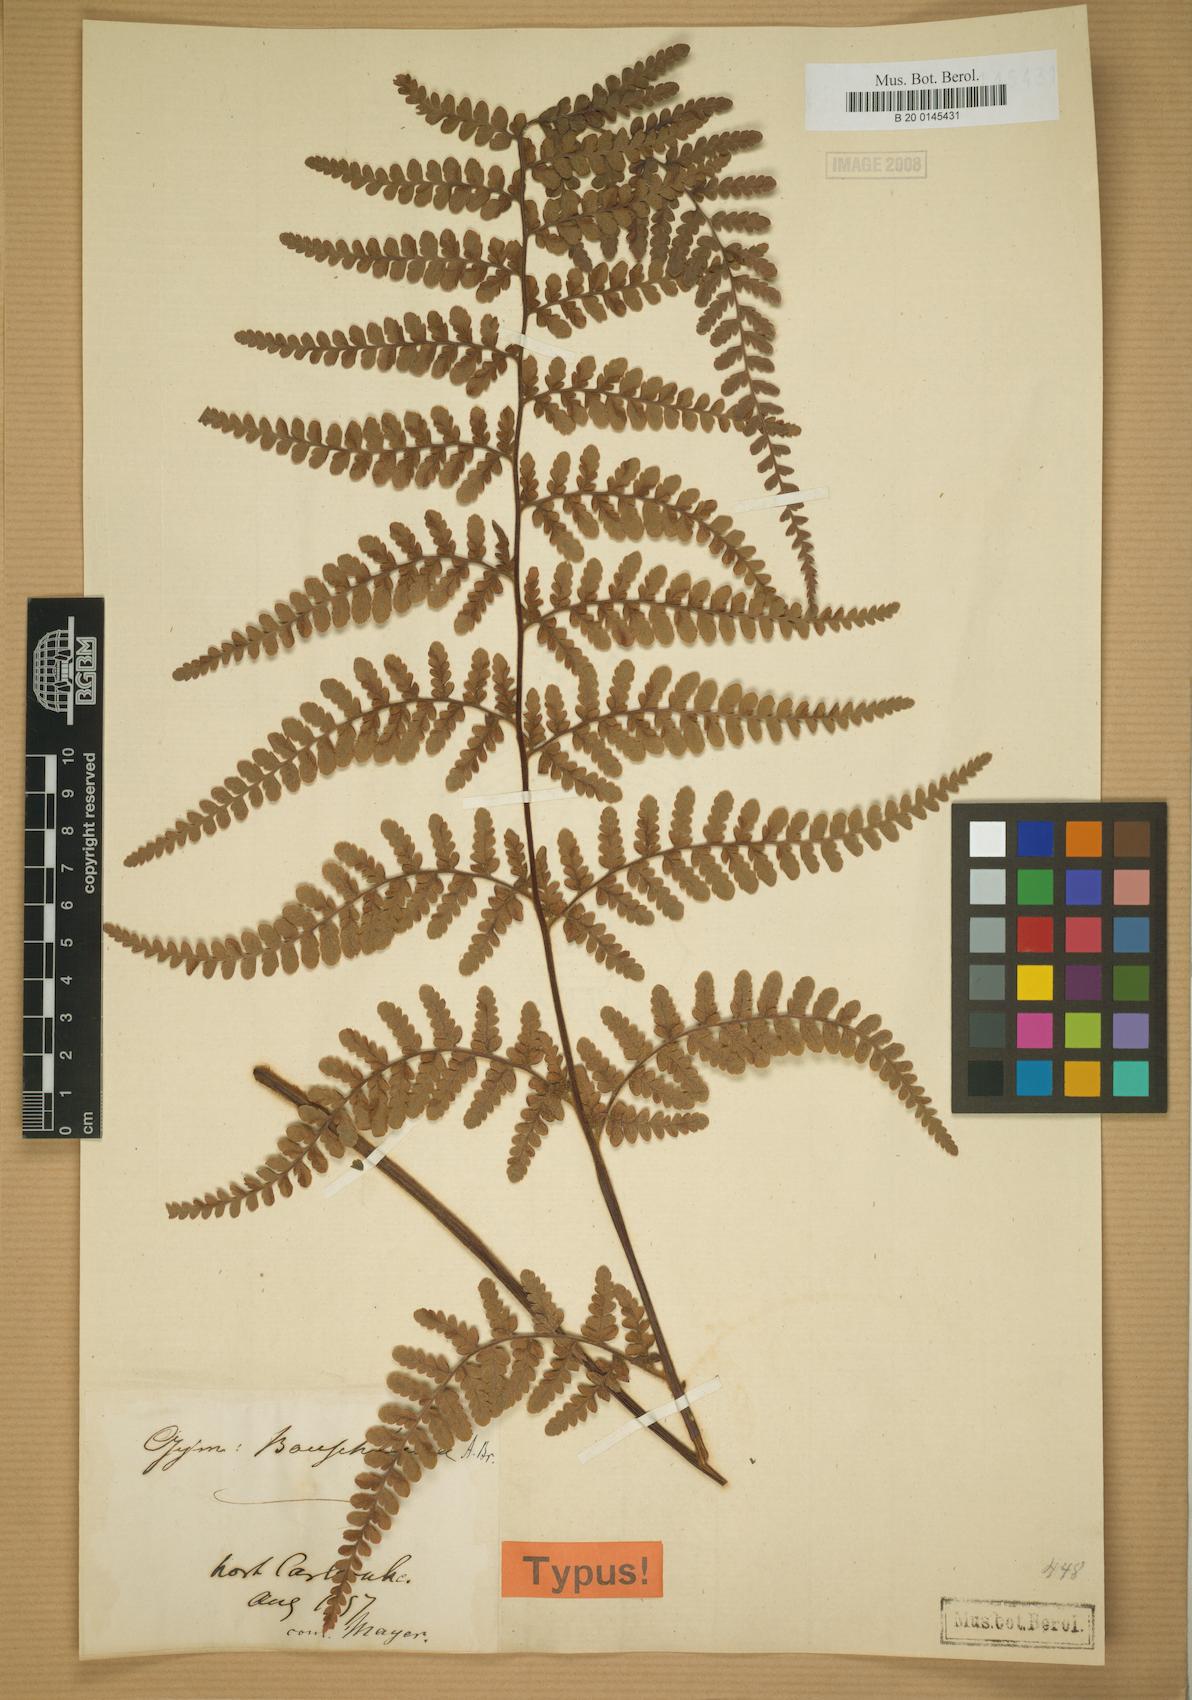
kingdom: Plantae
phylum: Tracheophyta
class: Polypodiopsida
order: Polypodiales
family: Adiantaceae
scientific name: Adiantaceae
